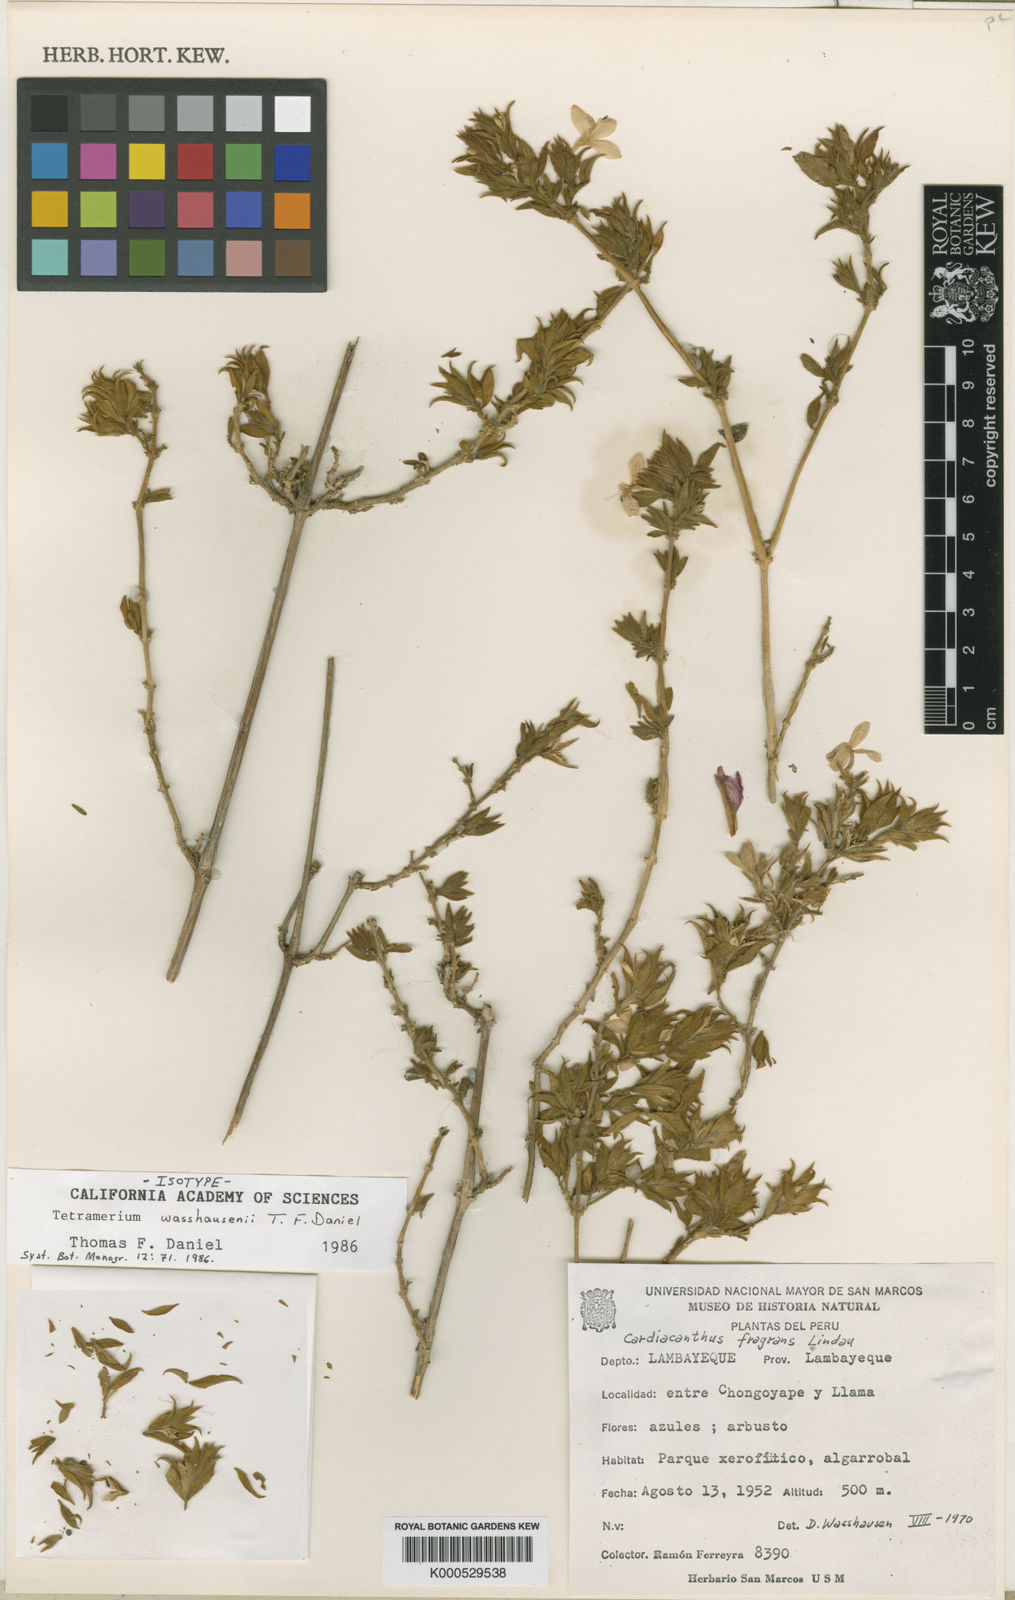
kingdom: Plantae
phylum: Tracheophyta
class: Magnoliopsida
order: Lamiales
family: Acanthaceae
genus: Tetramerium
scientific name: Tetramerium wasshausenii
